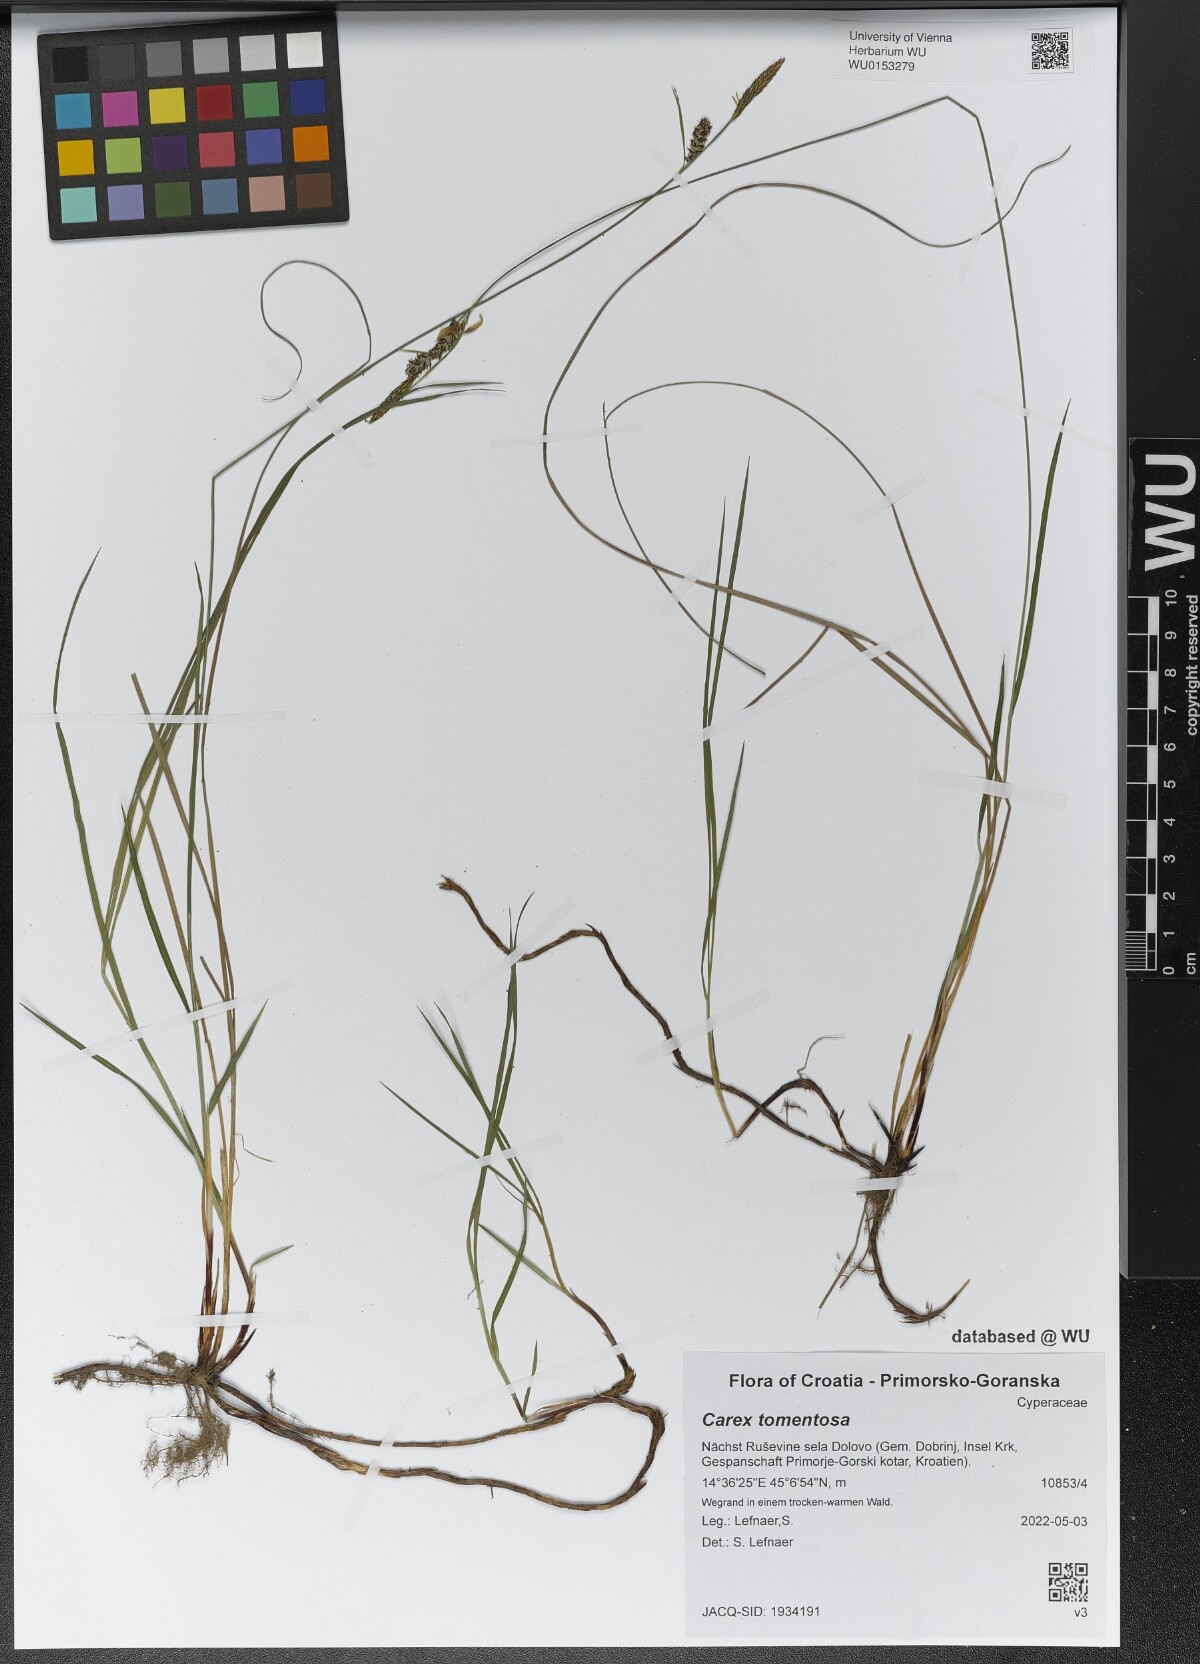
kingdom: Plantae
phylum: Tracheophyta
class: Liliopsida
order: Poales
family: Cyperaceae
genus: Carex
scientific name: Carex tomentosa
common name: Downy-fruited sedge
